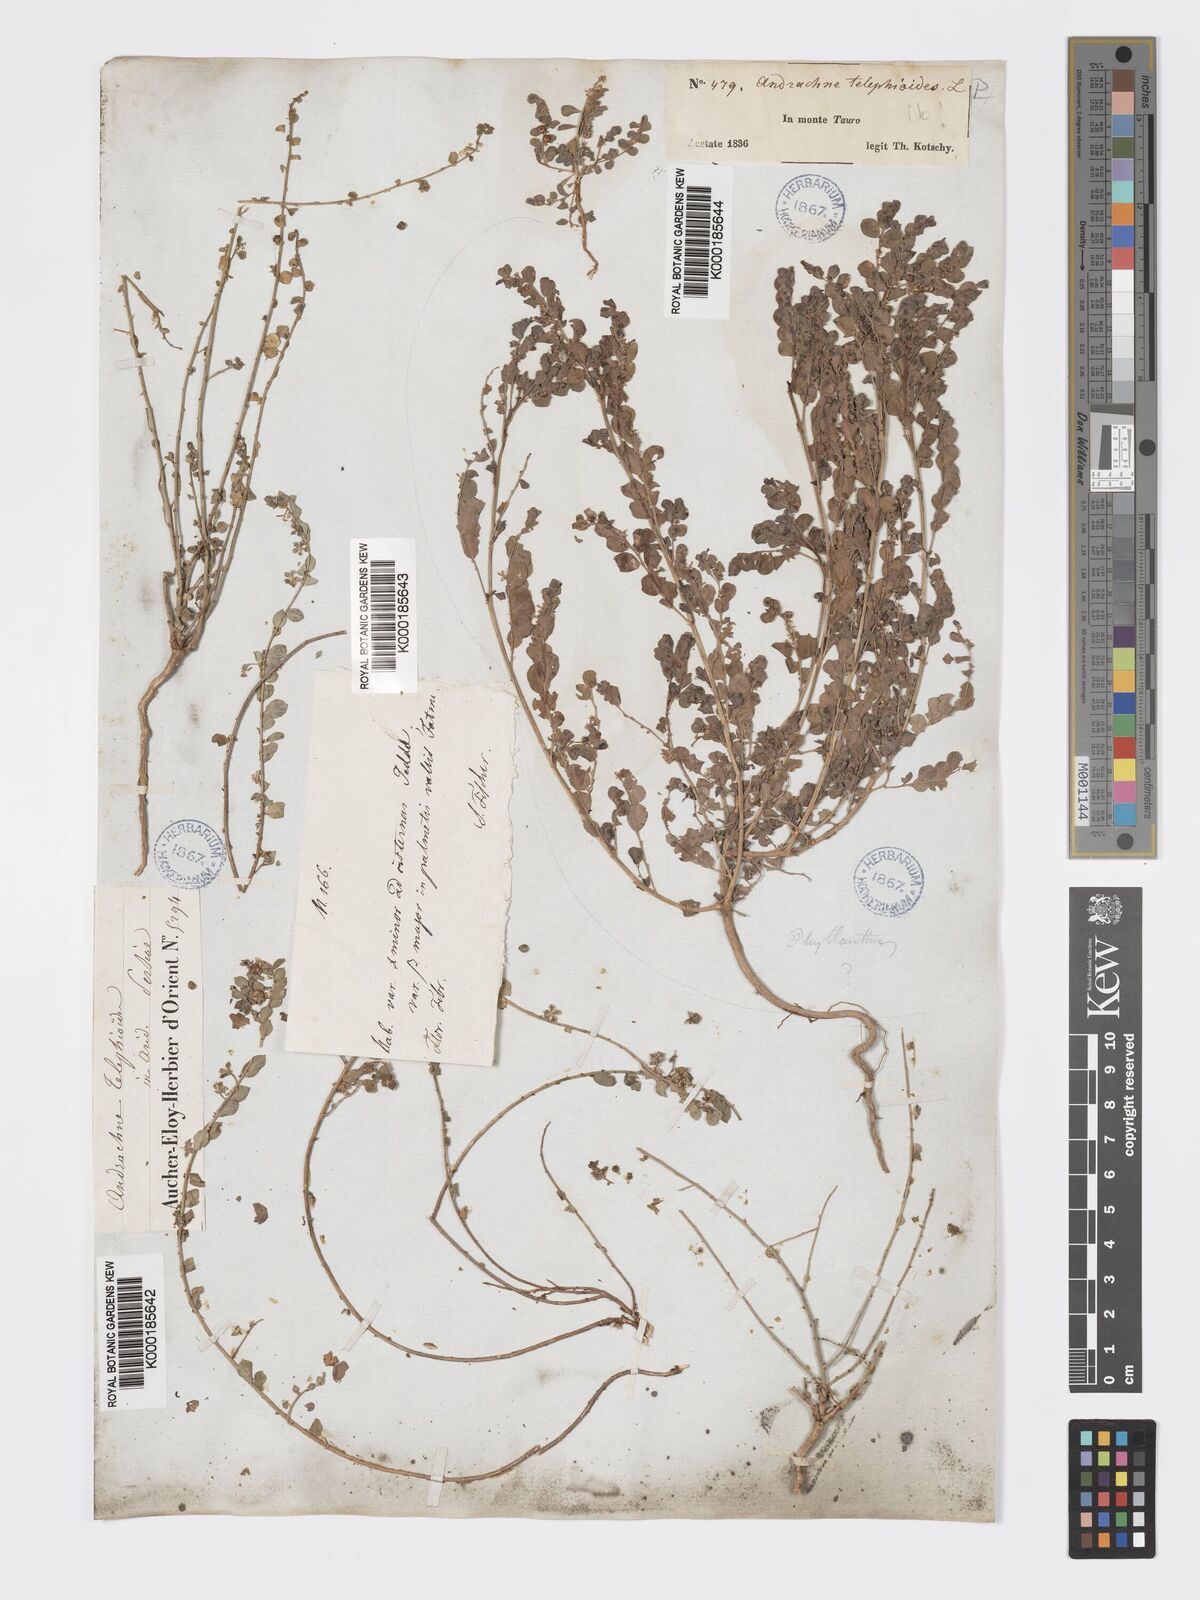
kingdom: Plantae
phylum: Tracheophyta
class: Magnoliopsida
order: Malpighiales
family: Phyllanthaceae
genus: Andrachne
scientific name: Andrachne telephioides
